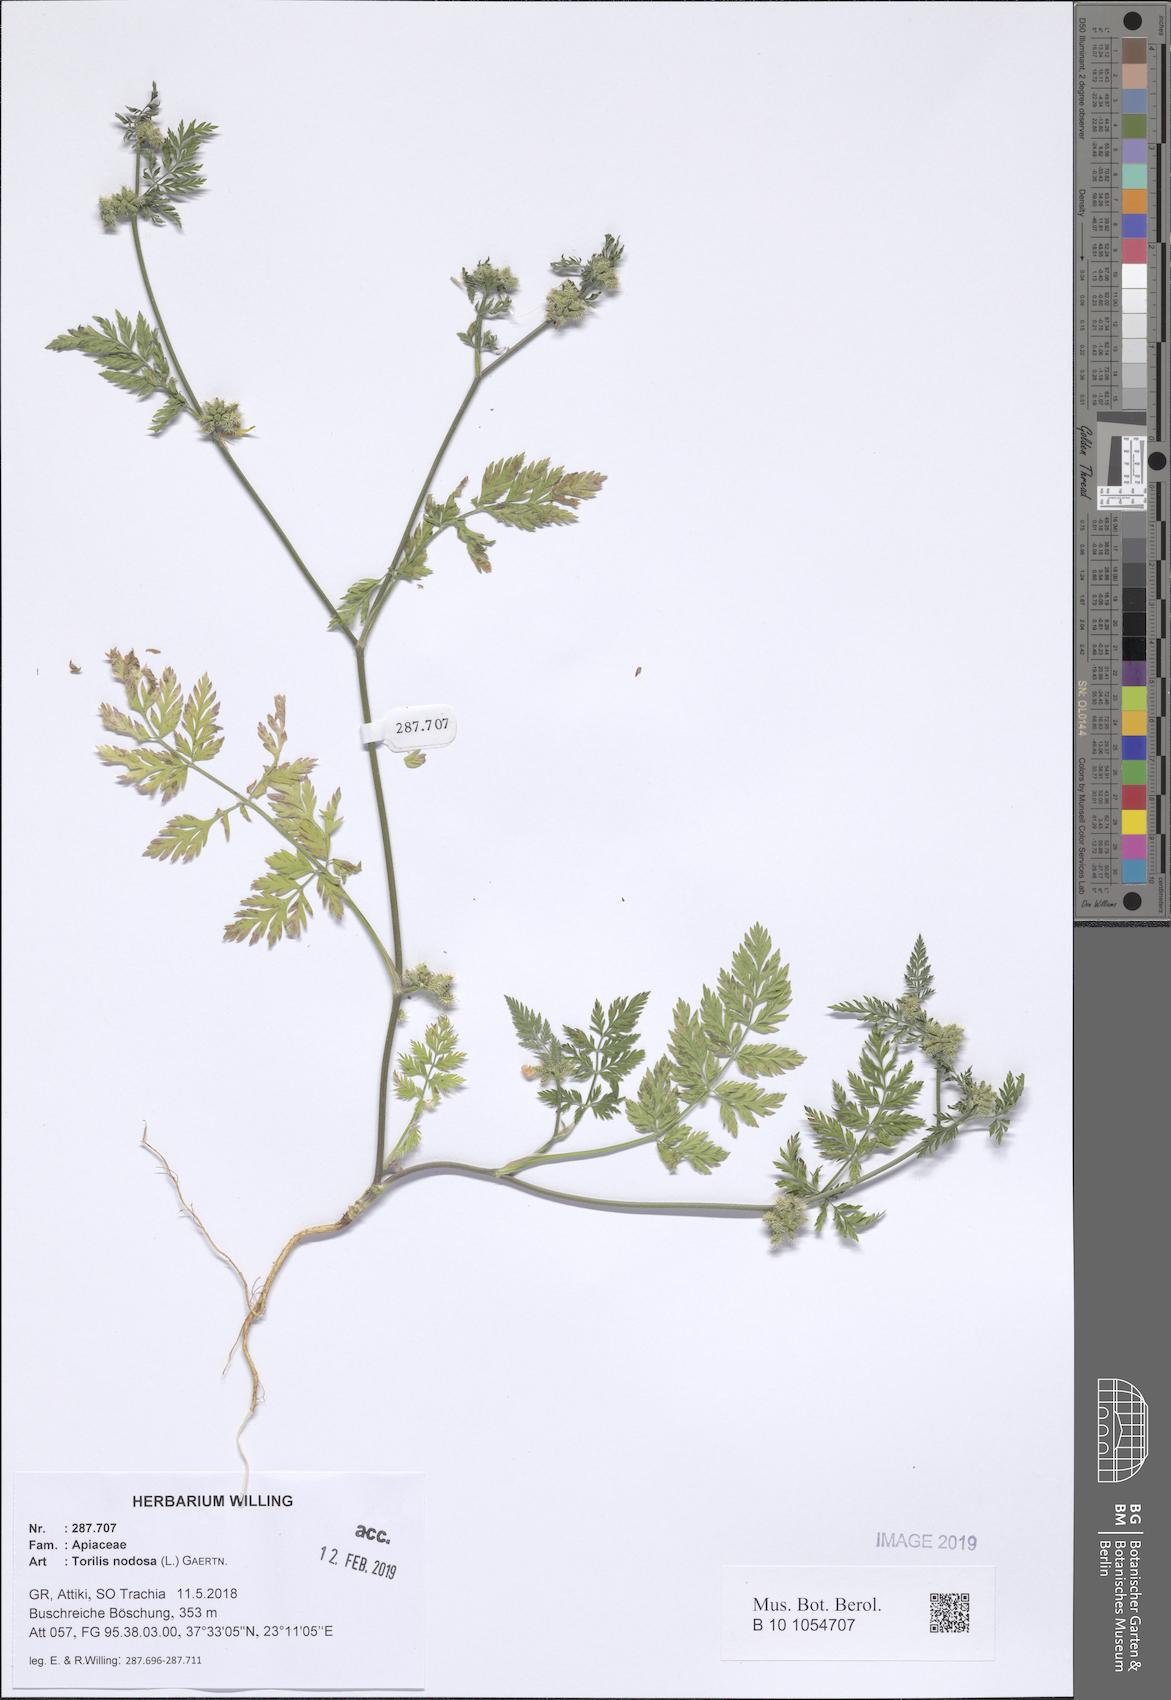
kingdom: Plantae
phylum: Tracheophyta
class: Magnoliopsida
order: Apiales
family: Apiaceae
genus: Torilis
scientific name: Torilis nodosa
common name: Knotted hedge-parsley
